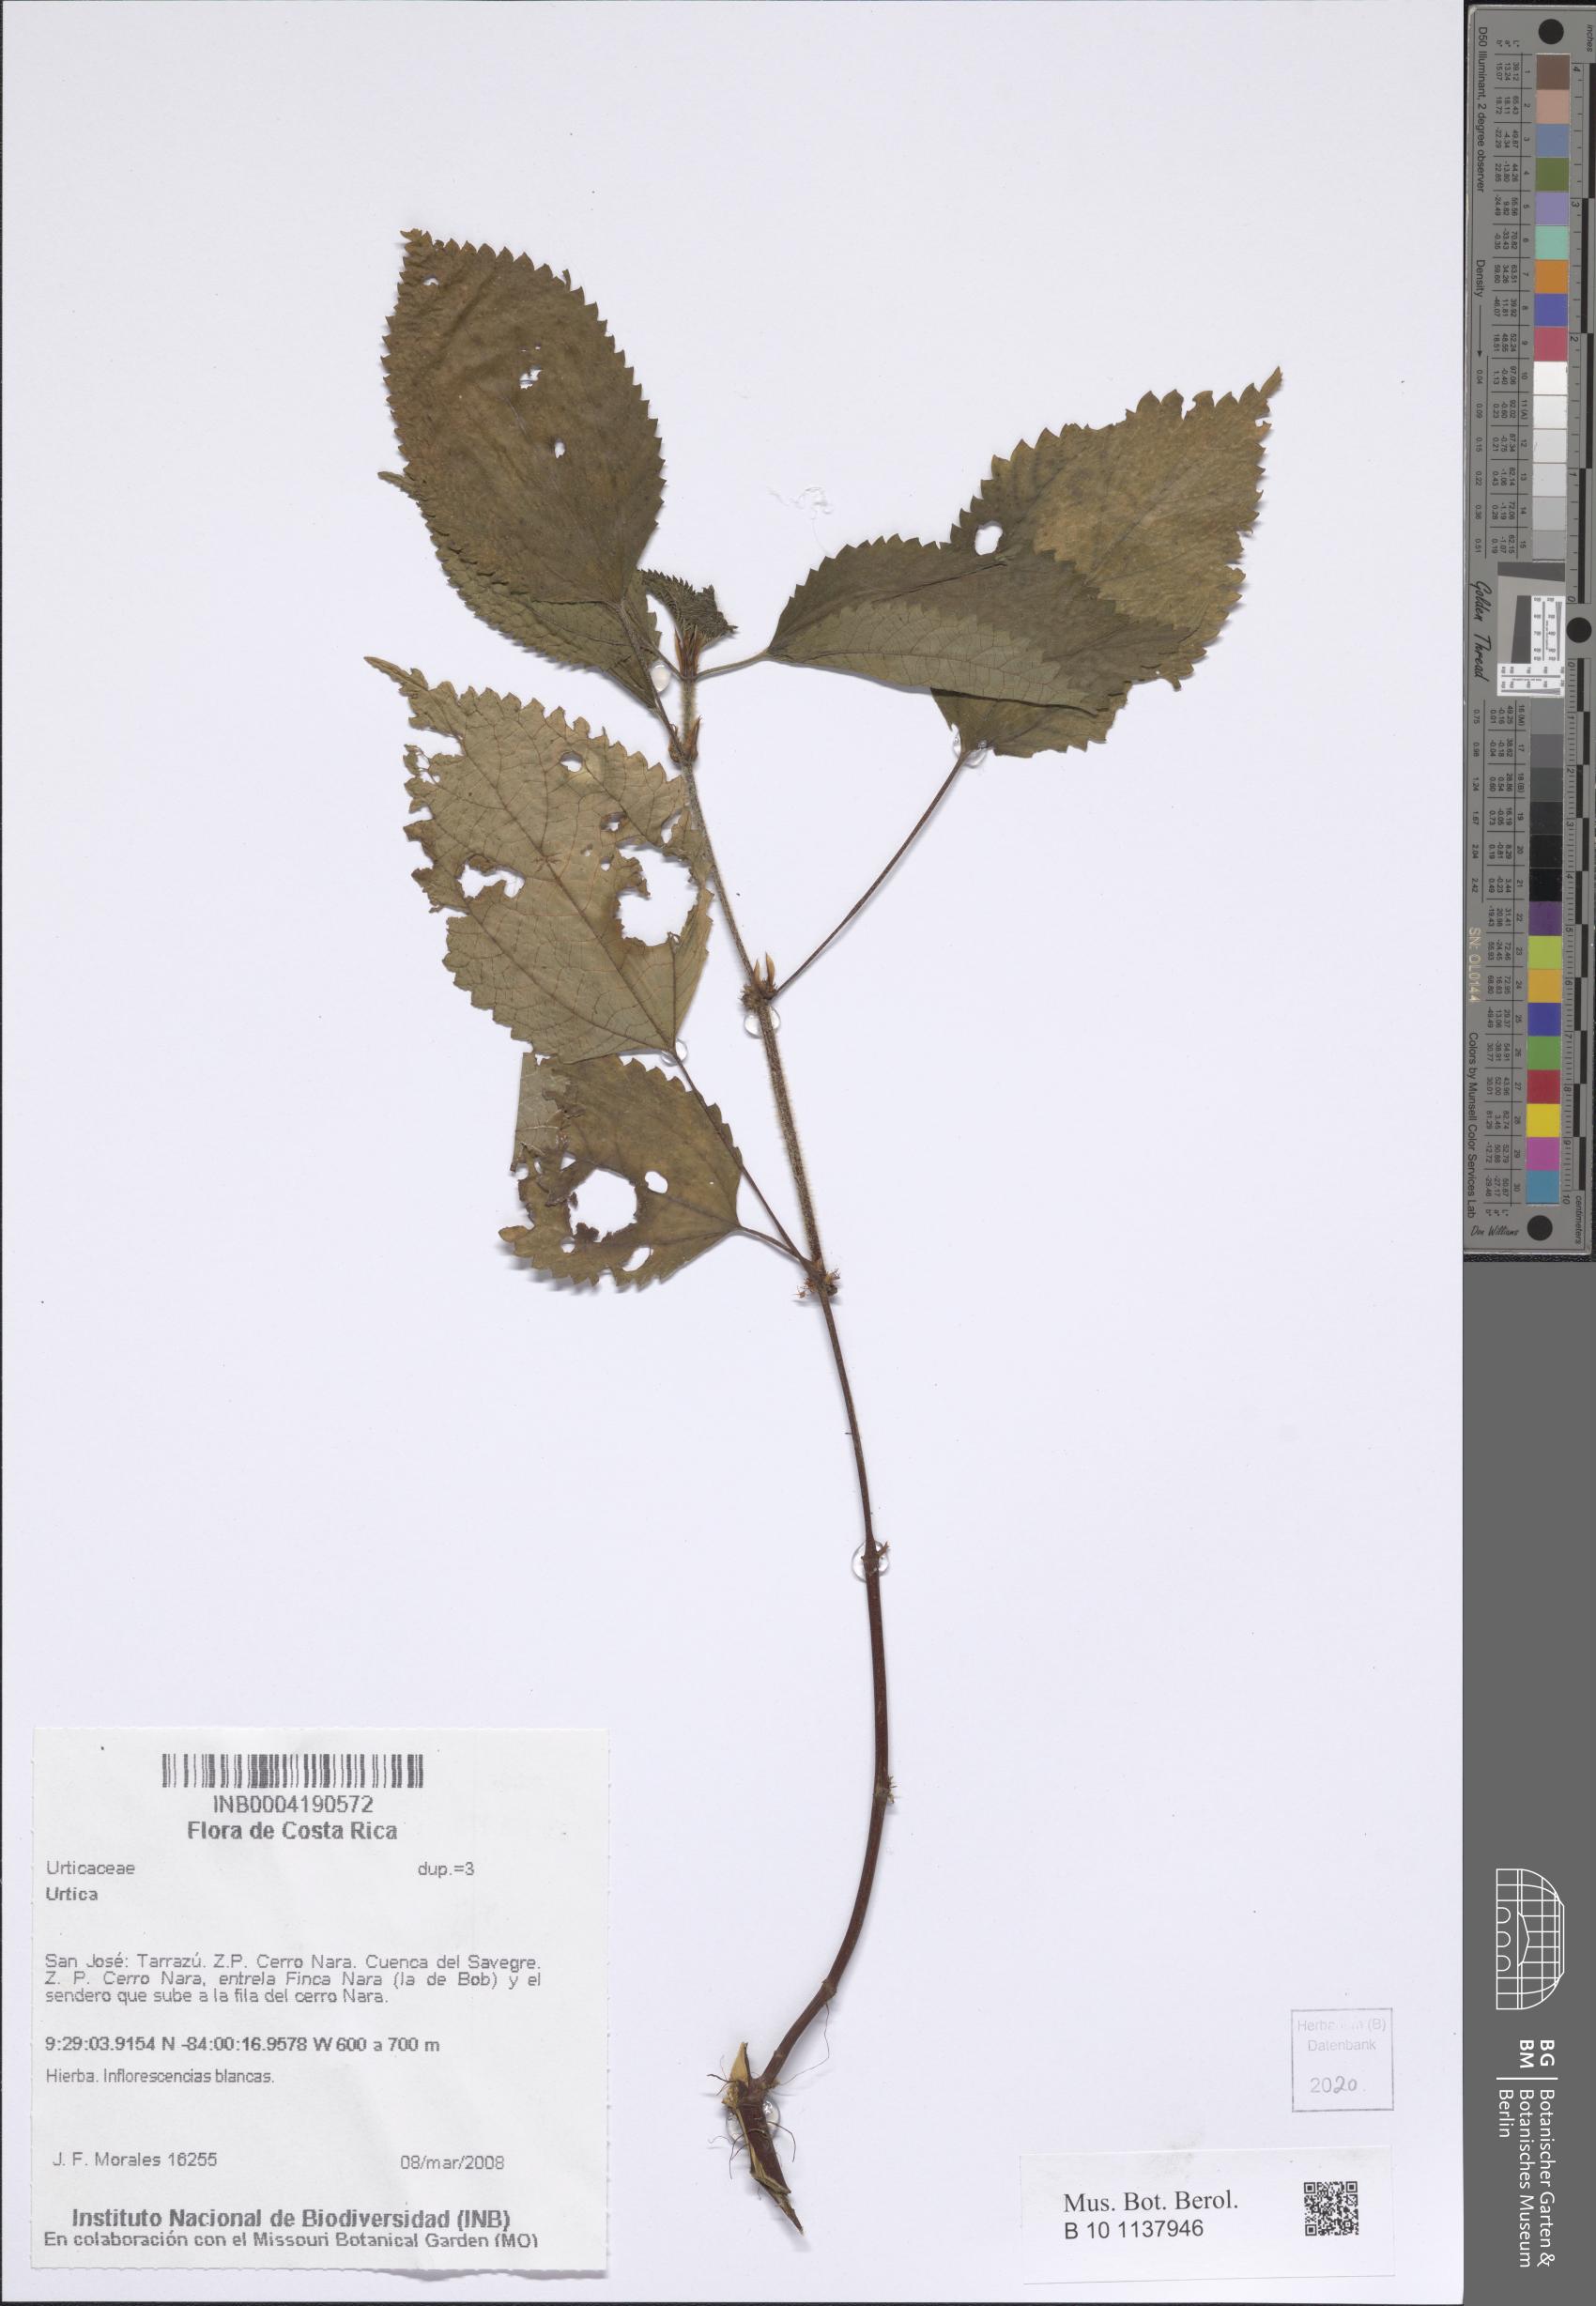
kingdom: Plantae
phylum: Tracheophyta
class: Magnoliopsida
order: Rosales
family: Urticaceae
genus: Urtica
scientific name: Urtica
